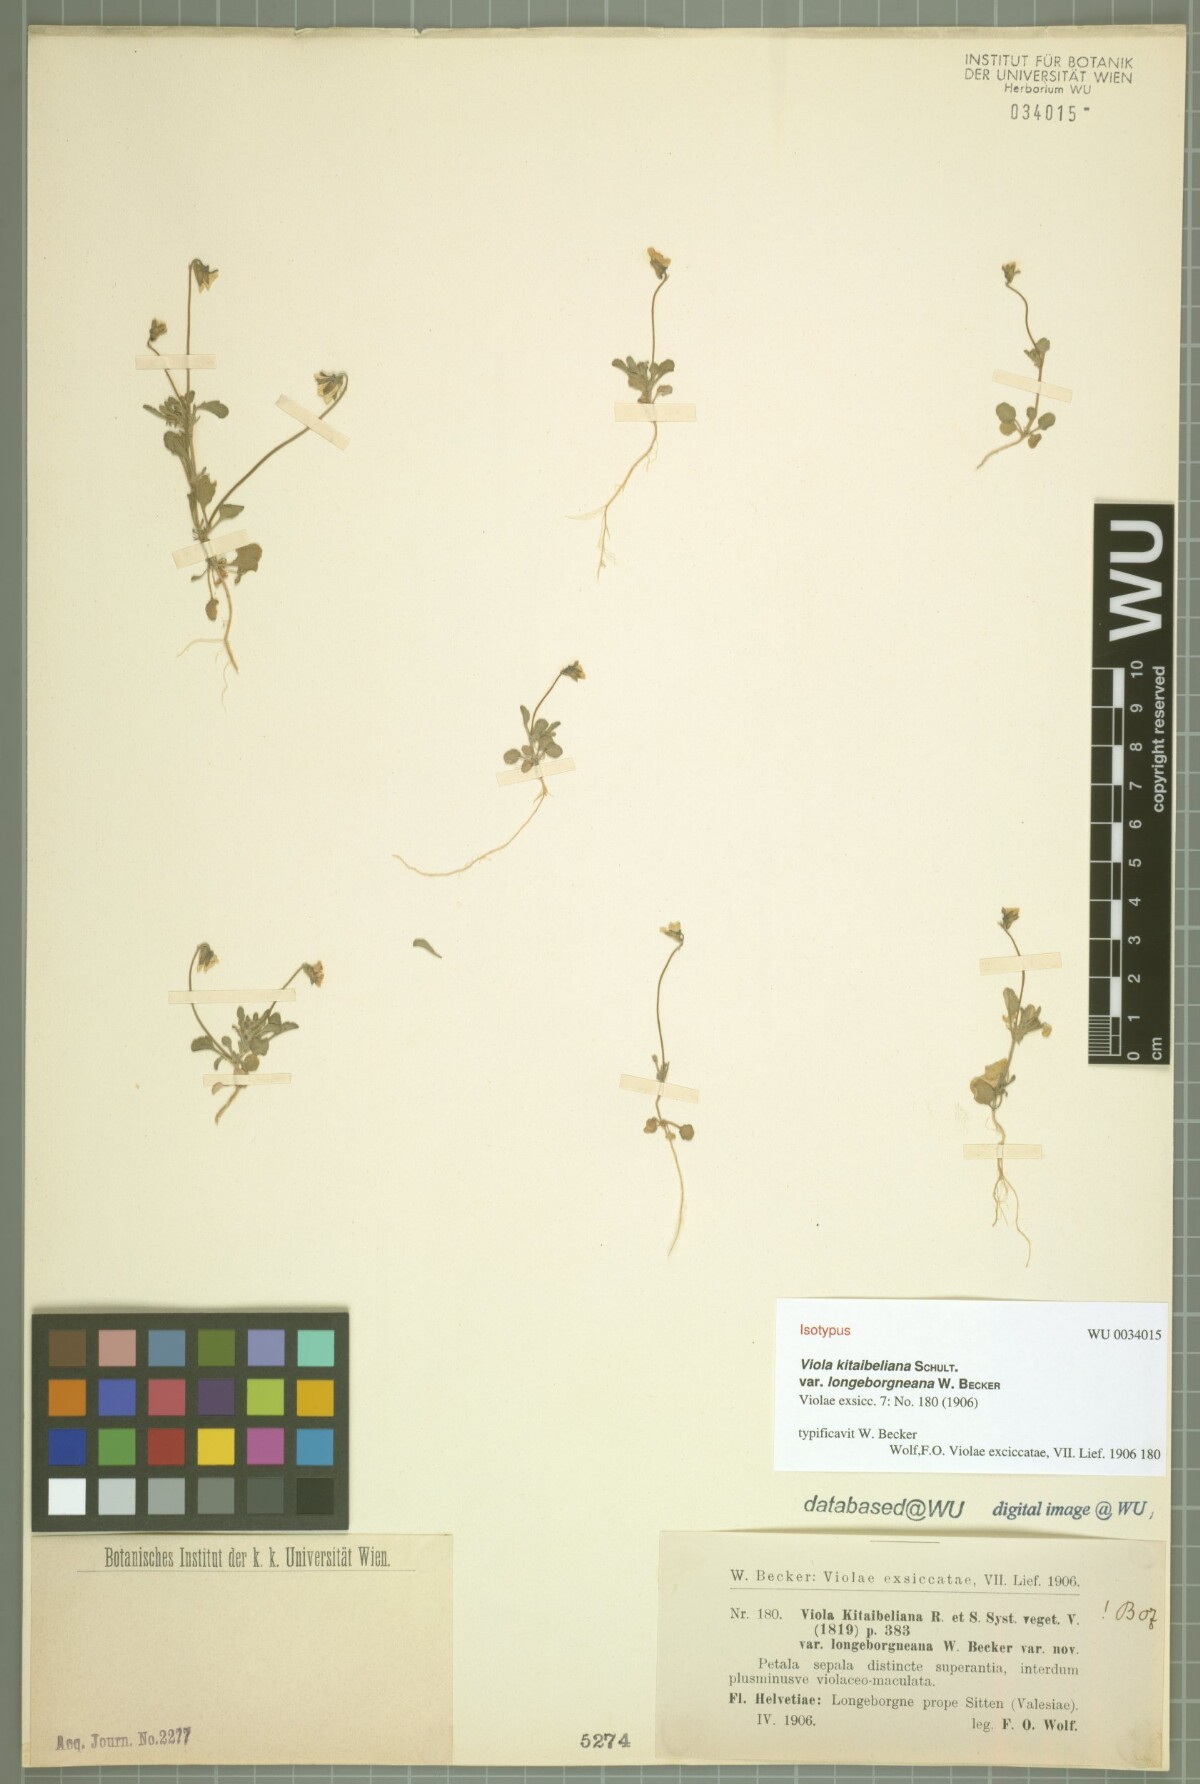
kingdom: Plantae
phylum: Tracheophyta
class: Magnoliopsida
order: Malpighiales
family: Violaceae
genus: Viola
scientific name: Viola hymettia
